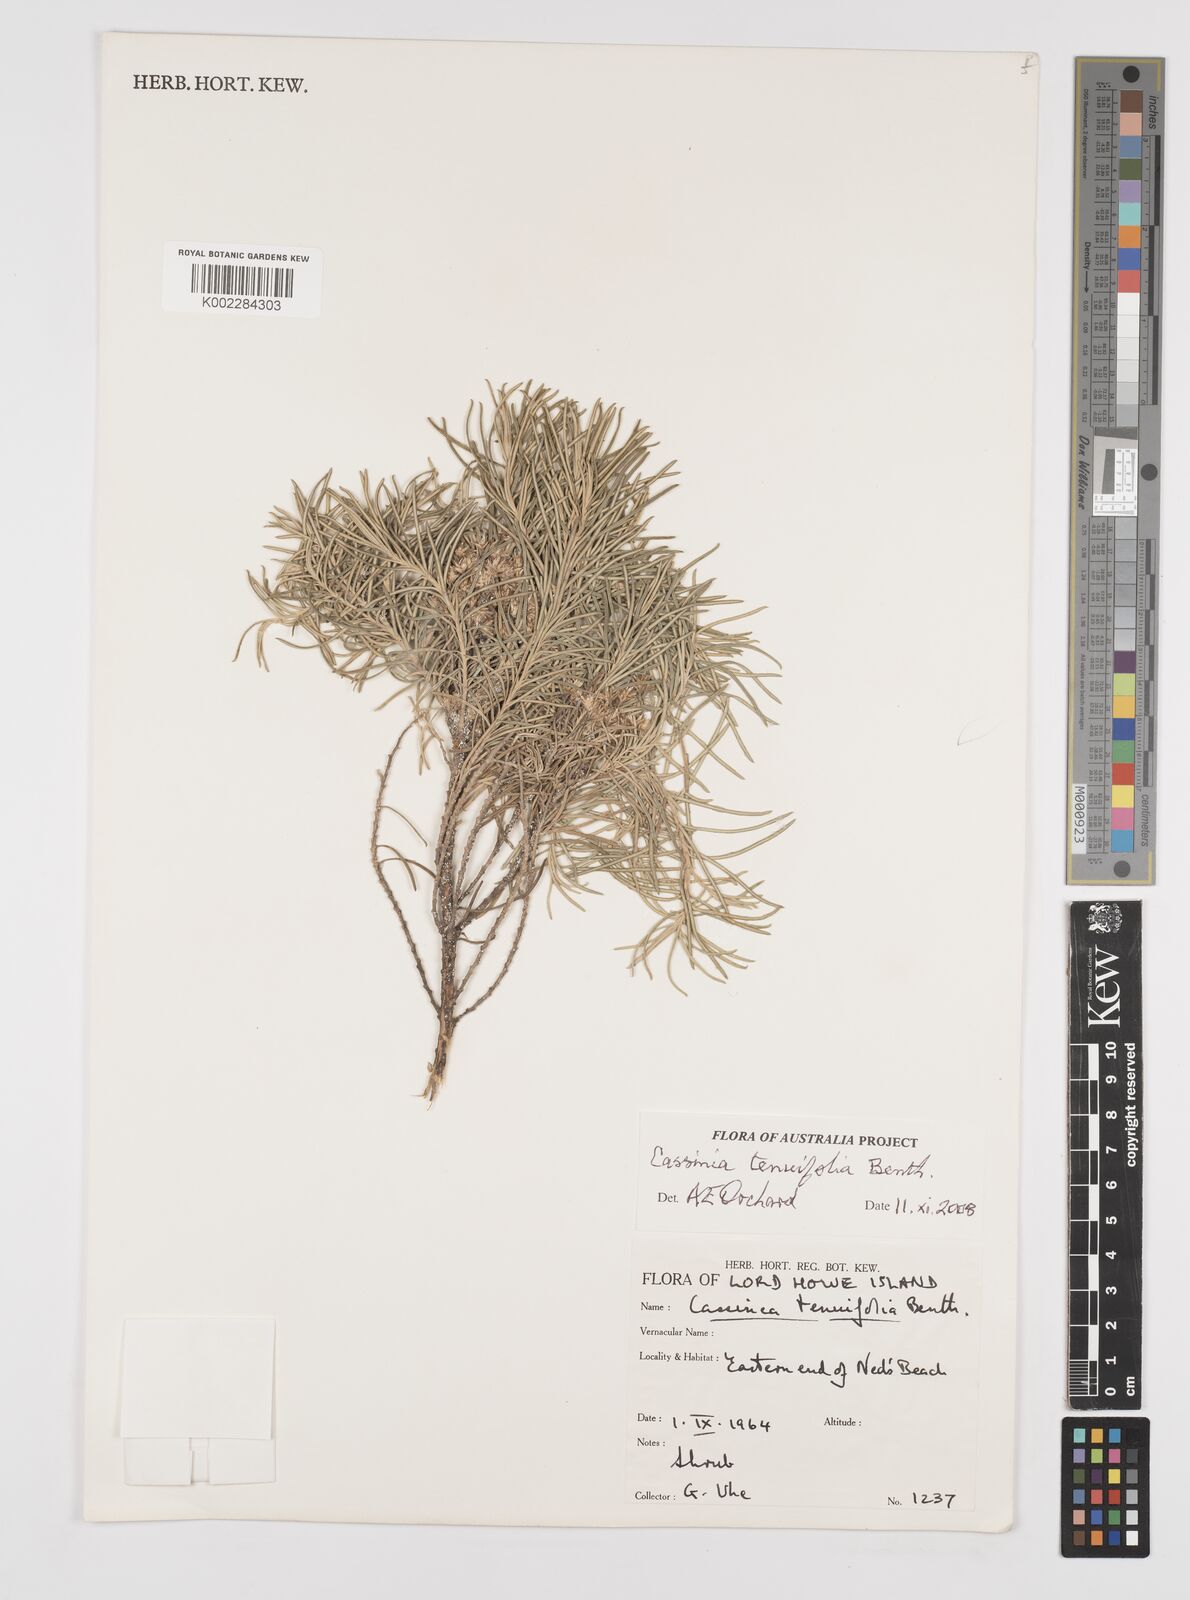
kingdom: Plantae
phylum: Tracheophyta
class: Magnoliopsida
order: Asterales
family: Asteraceae
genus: Cassinia
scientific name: Cassinia tenuifolia
